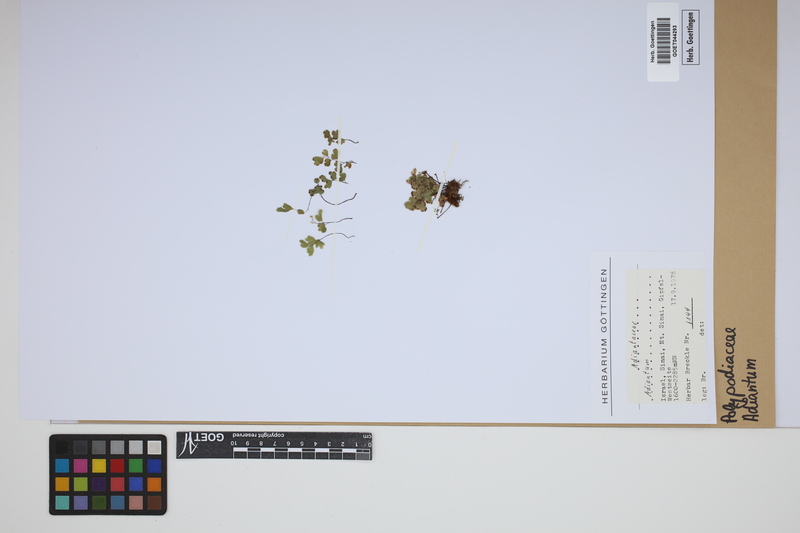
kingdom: Plantae
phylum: Tracheophyta
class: Polypodiopsida
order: Polypodiales
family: Pteridaceae
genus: Adiantum
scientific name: Adiantum
